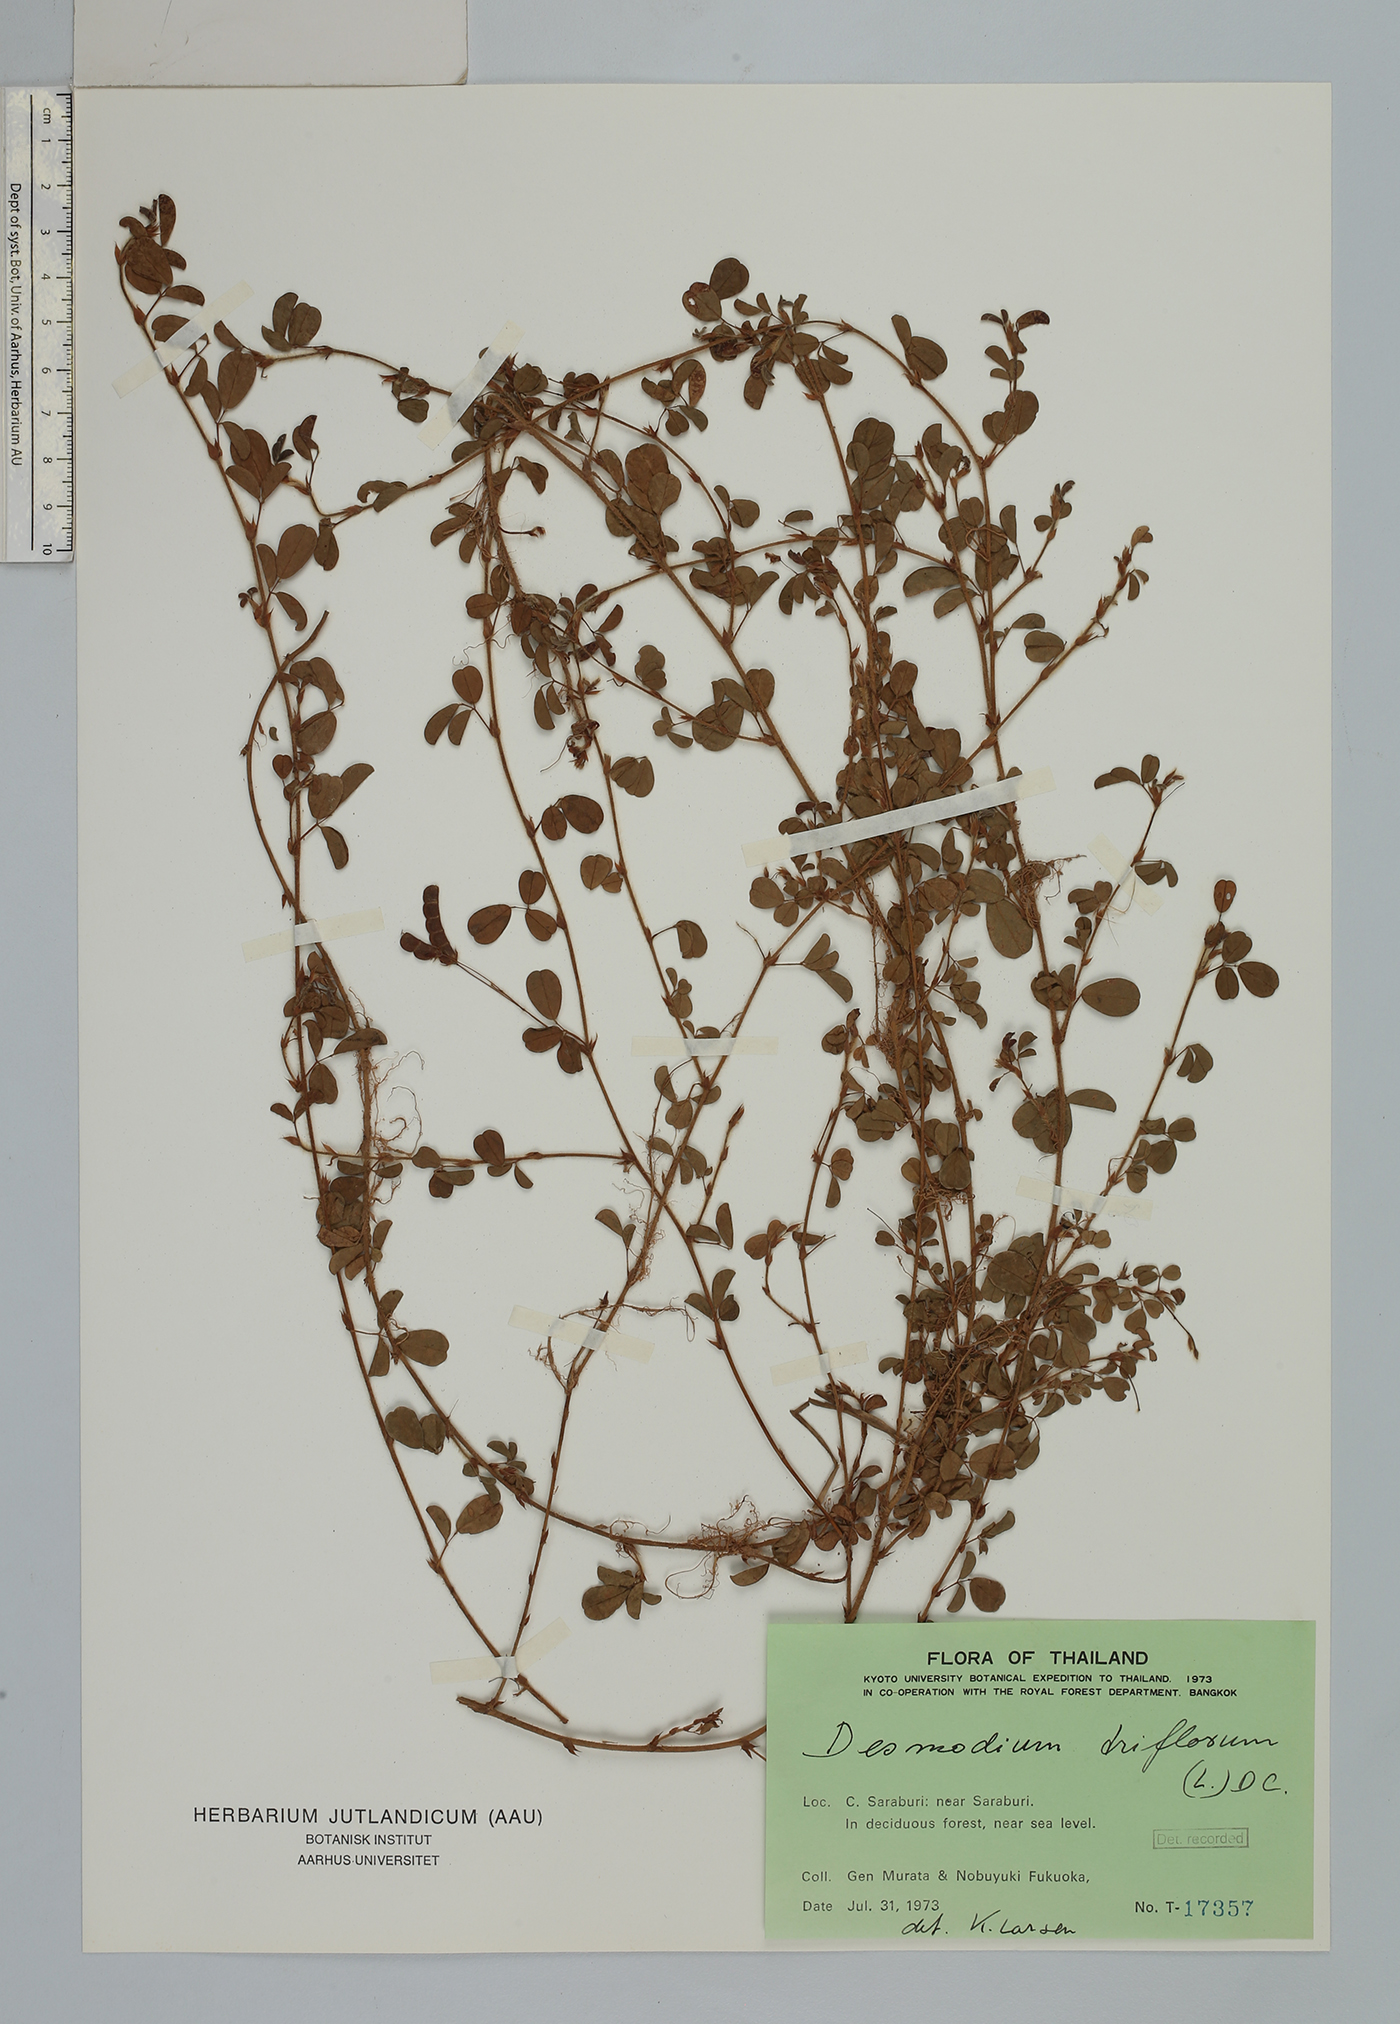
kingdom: Plantae
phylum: Tracheophyta
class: Magnoliopsida
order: Fabales
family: Fabaceae
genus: Grona
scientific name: Grona heterophylla
